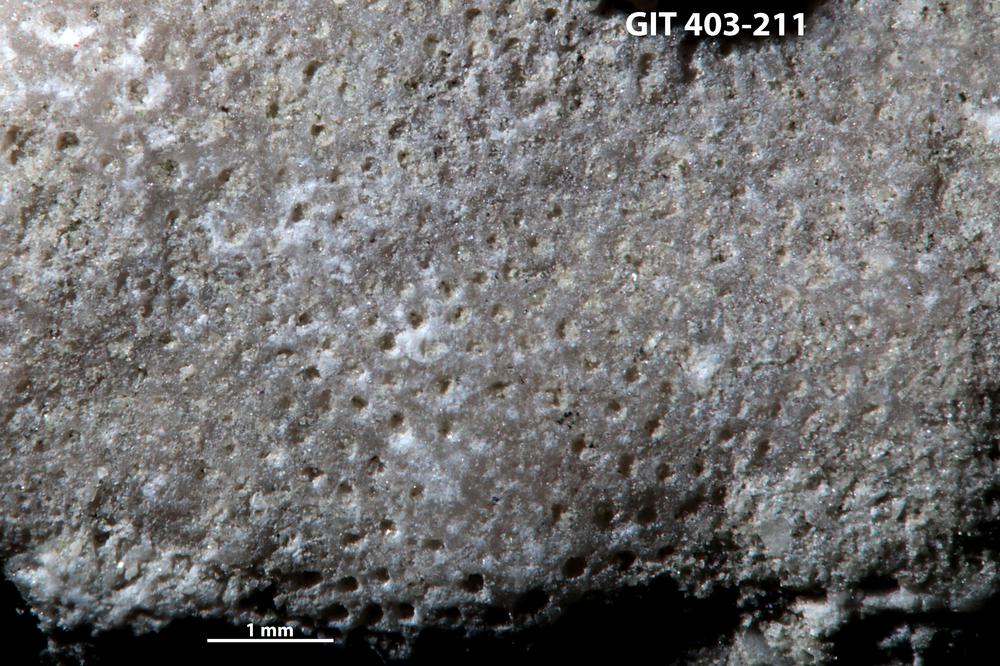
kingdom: Animalia
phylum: Bryozoa
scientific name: Bryozoa
